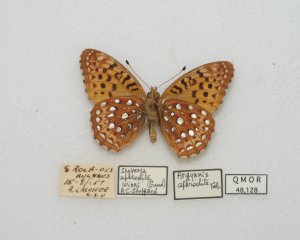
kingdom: Animalia
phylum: Arthropoda
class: Insecta
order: Lepidoptera
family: Nymphalidae
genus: Speyeria
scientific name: Speyeria aphrodite
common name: Aphrodite Fritillary
